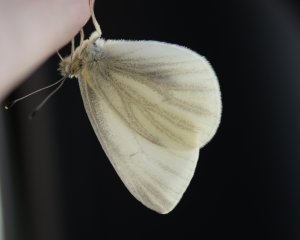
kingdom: Animalia
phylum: Arthropoda
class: Insecta
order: Lepidoptera
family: Pieridae
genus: Pieris
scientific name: Pieris virginiensis
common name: West Virginia White
